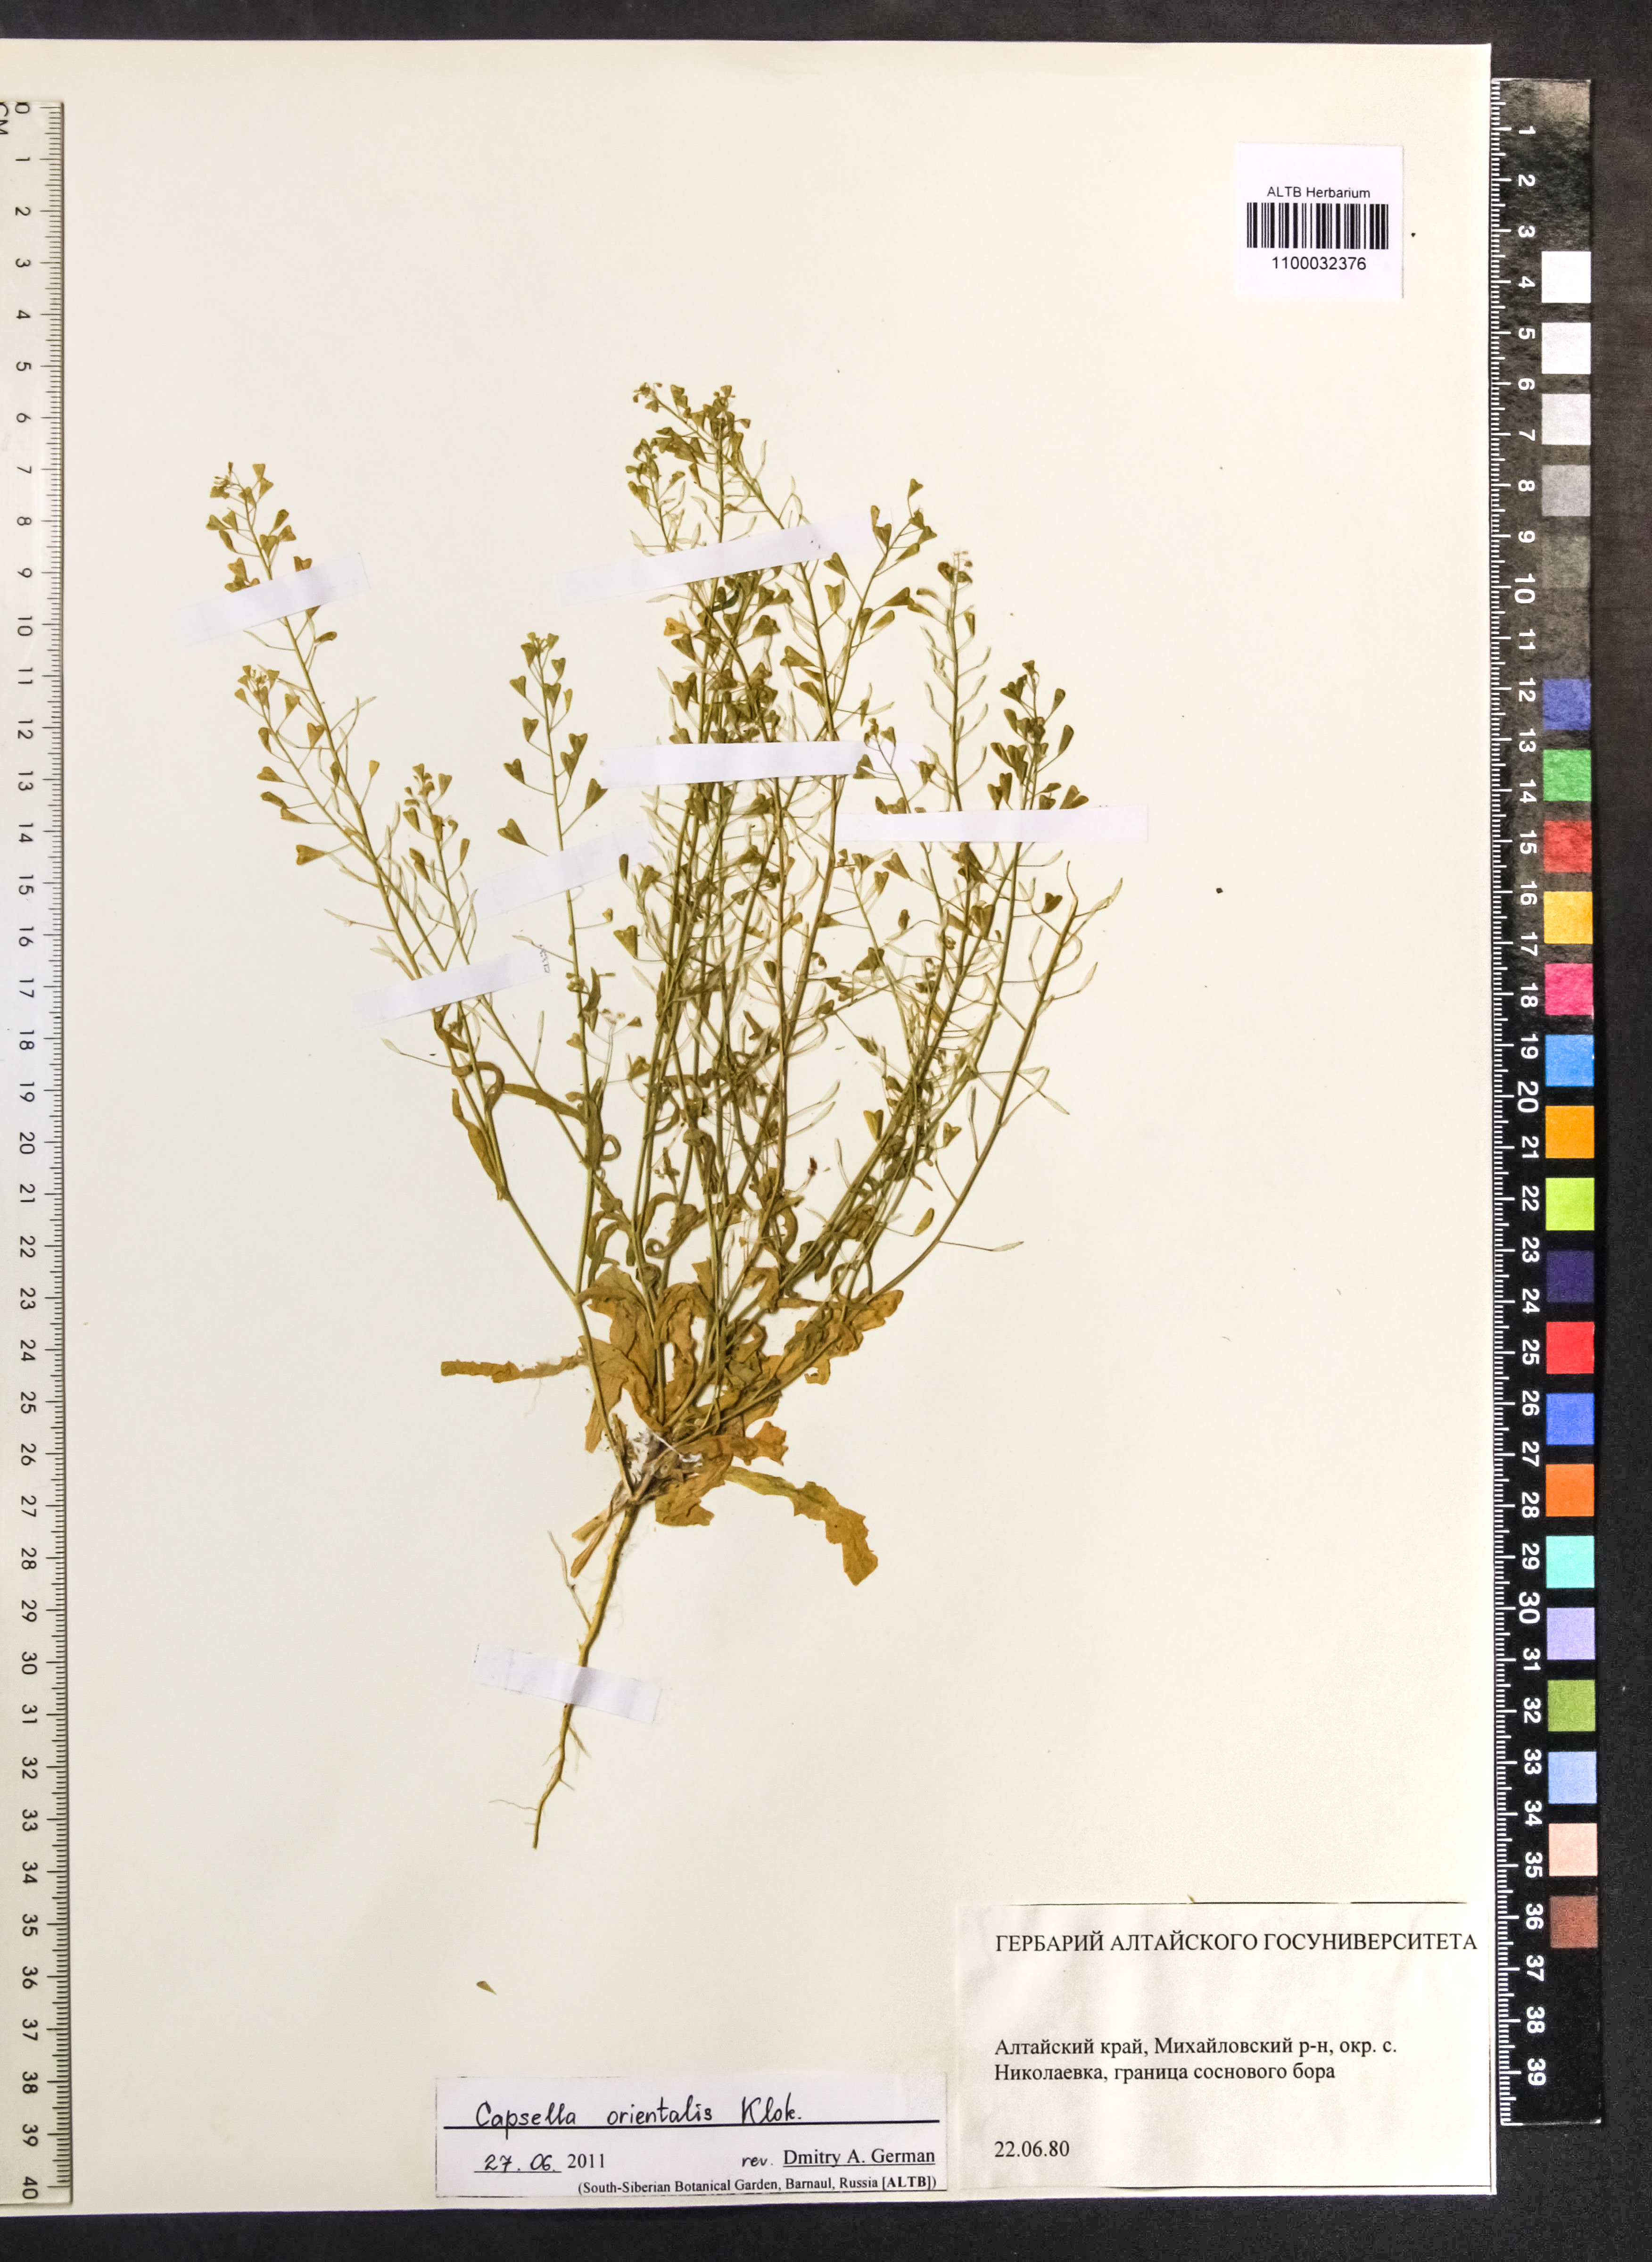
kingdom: Plantae
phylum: Tracheophyta
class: Magnoliopsida
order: Brassicales
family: Brassicaceae
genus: Capsella
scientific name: Capsella orientalis
